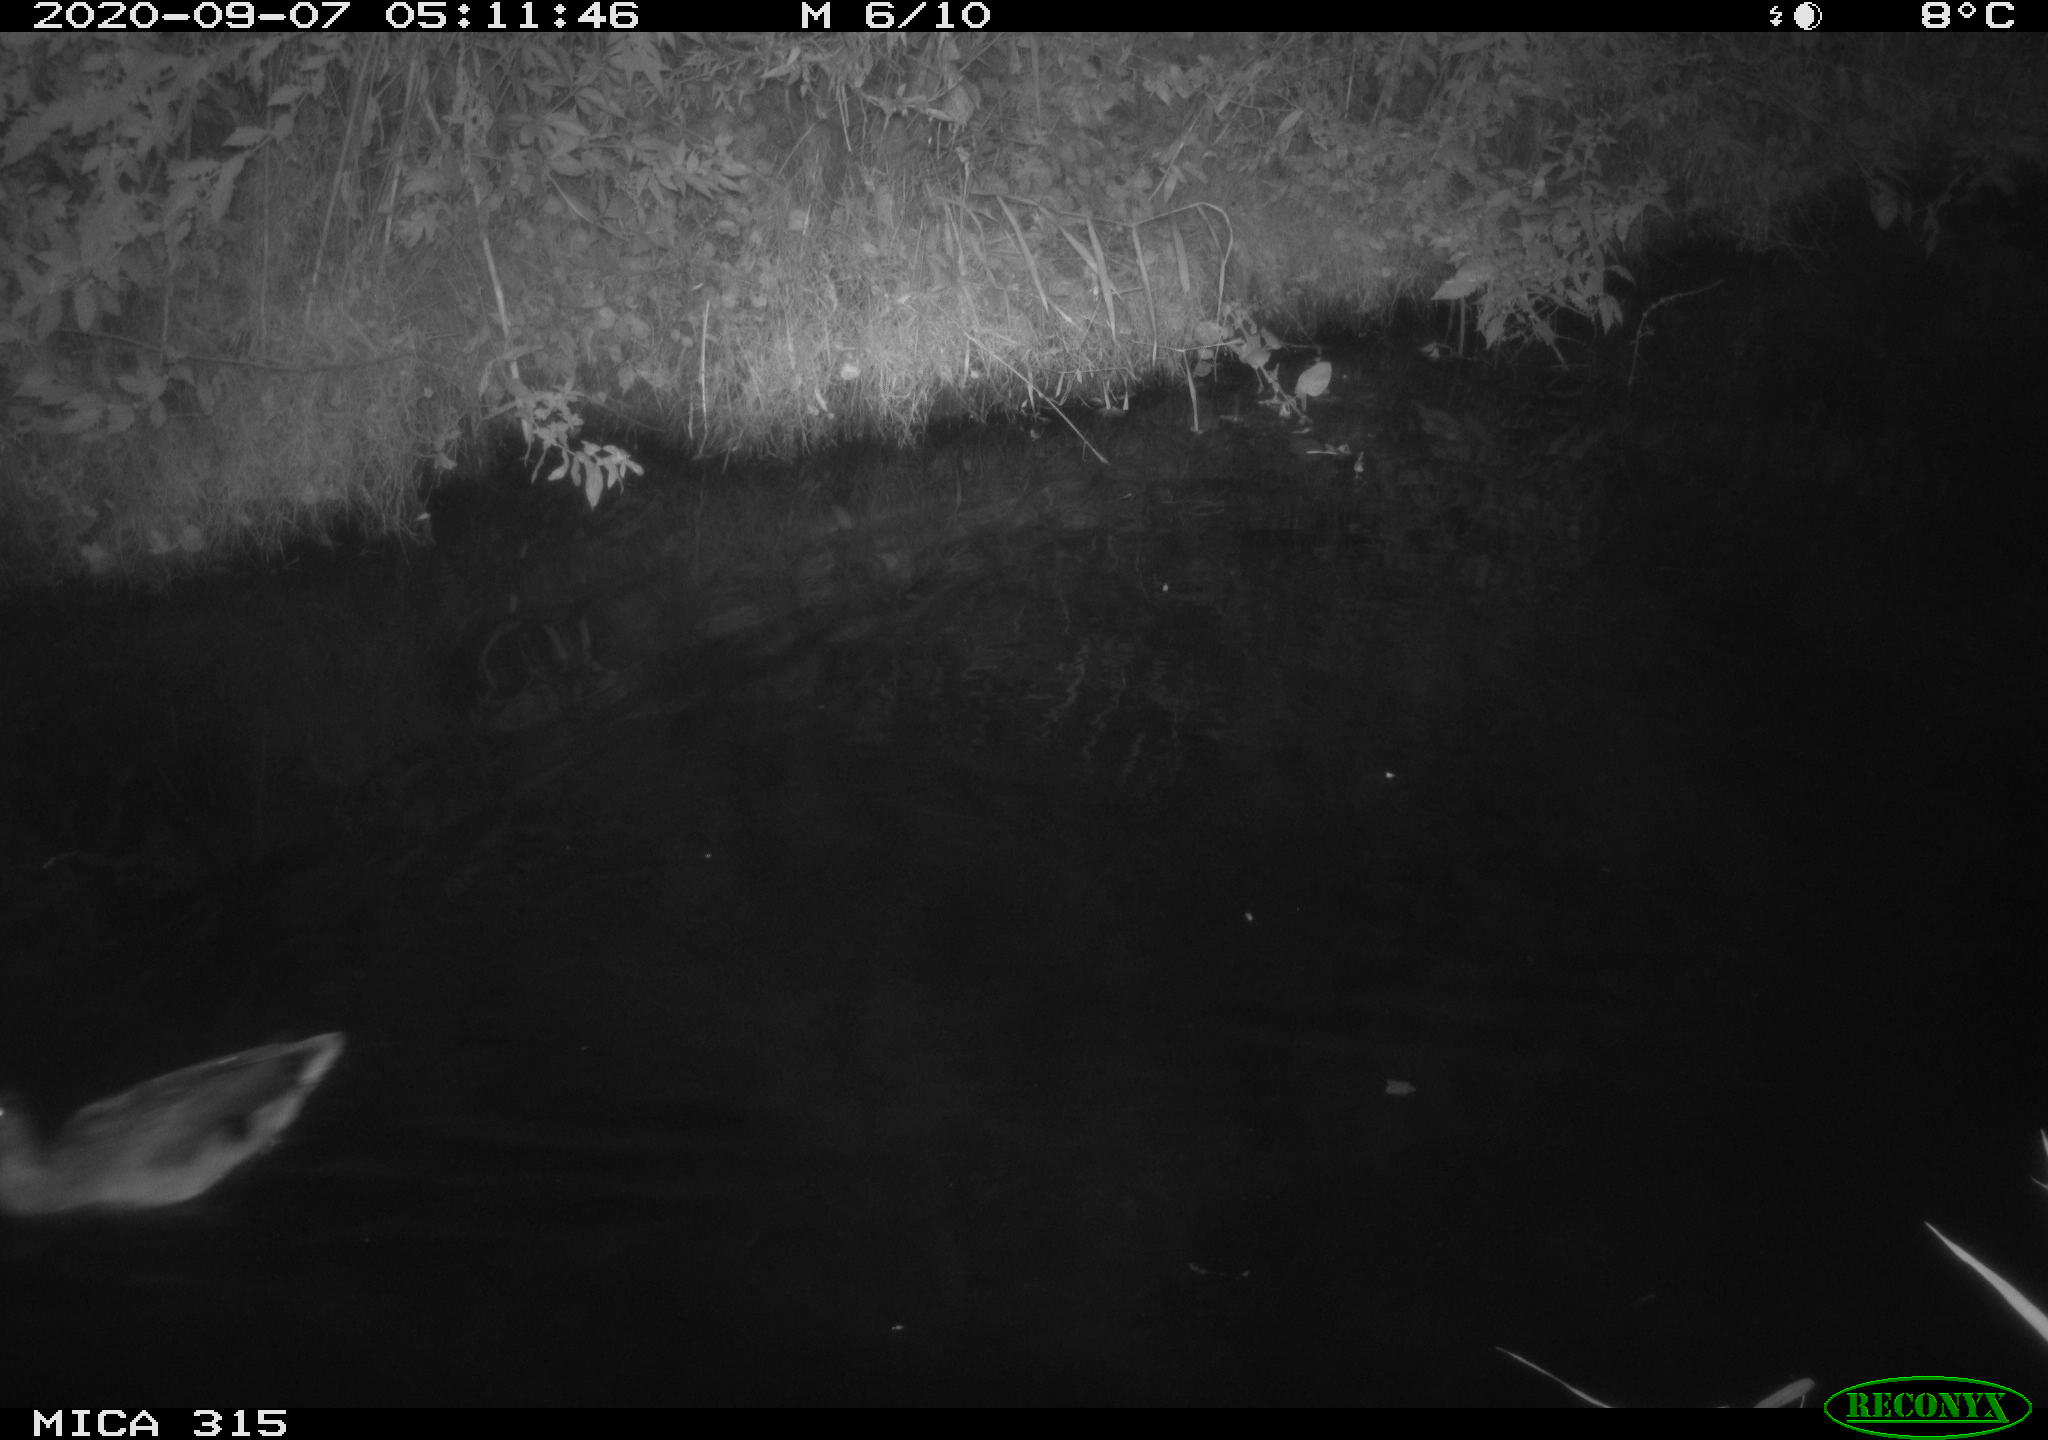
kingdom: Animalia
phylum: Chordata
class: Aves
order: Anseriformes
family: Anatidae
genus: Anas
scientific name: Anas platyrhynchos
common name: Mallard
